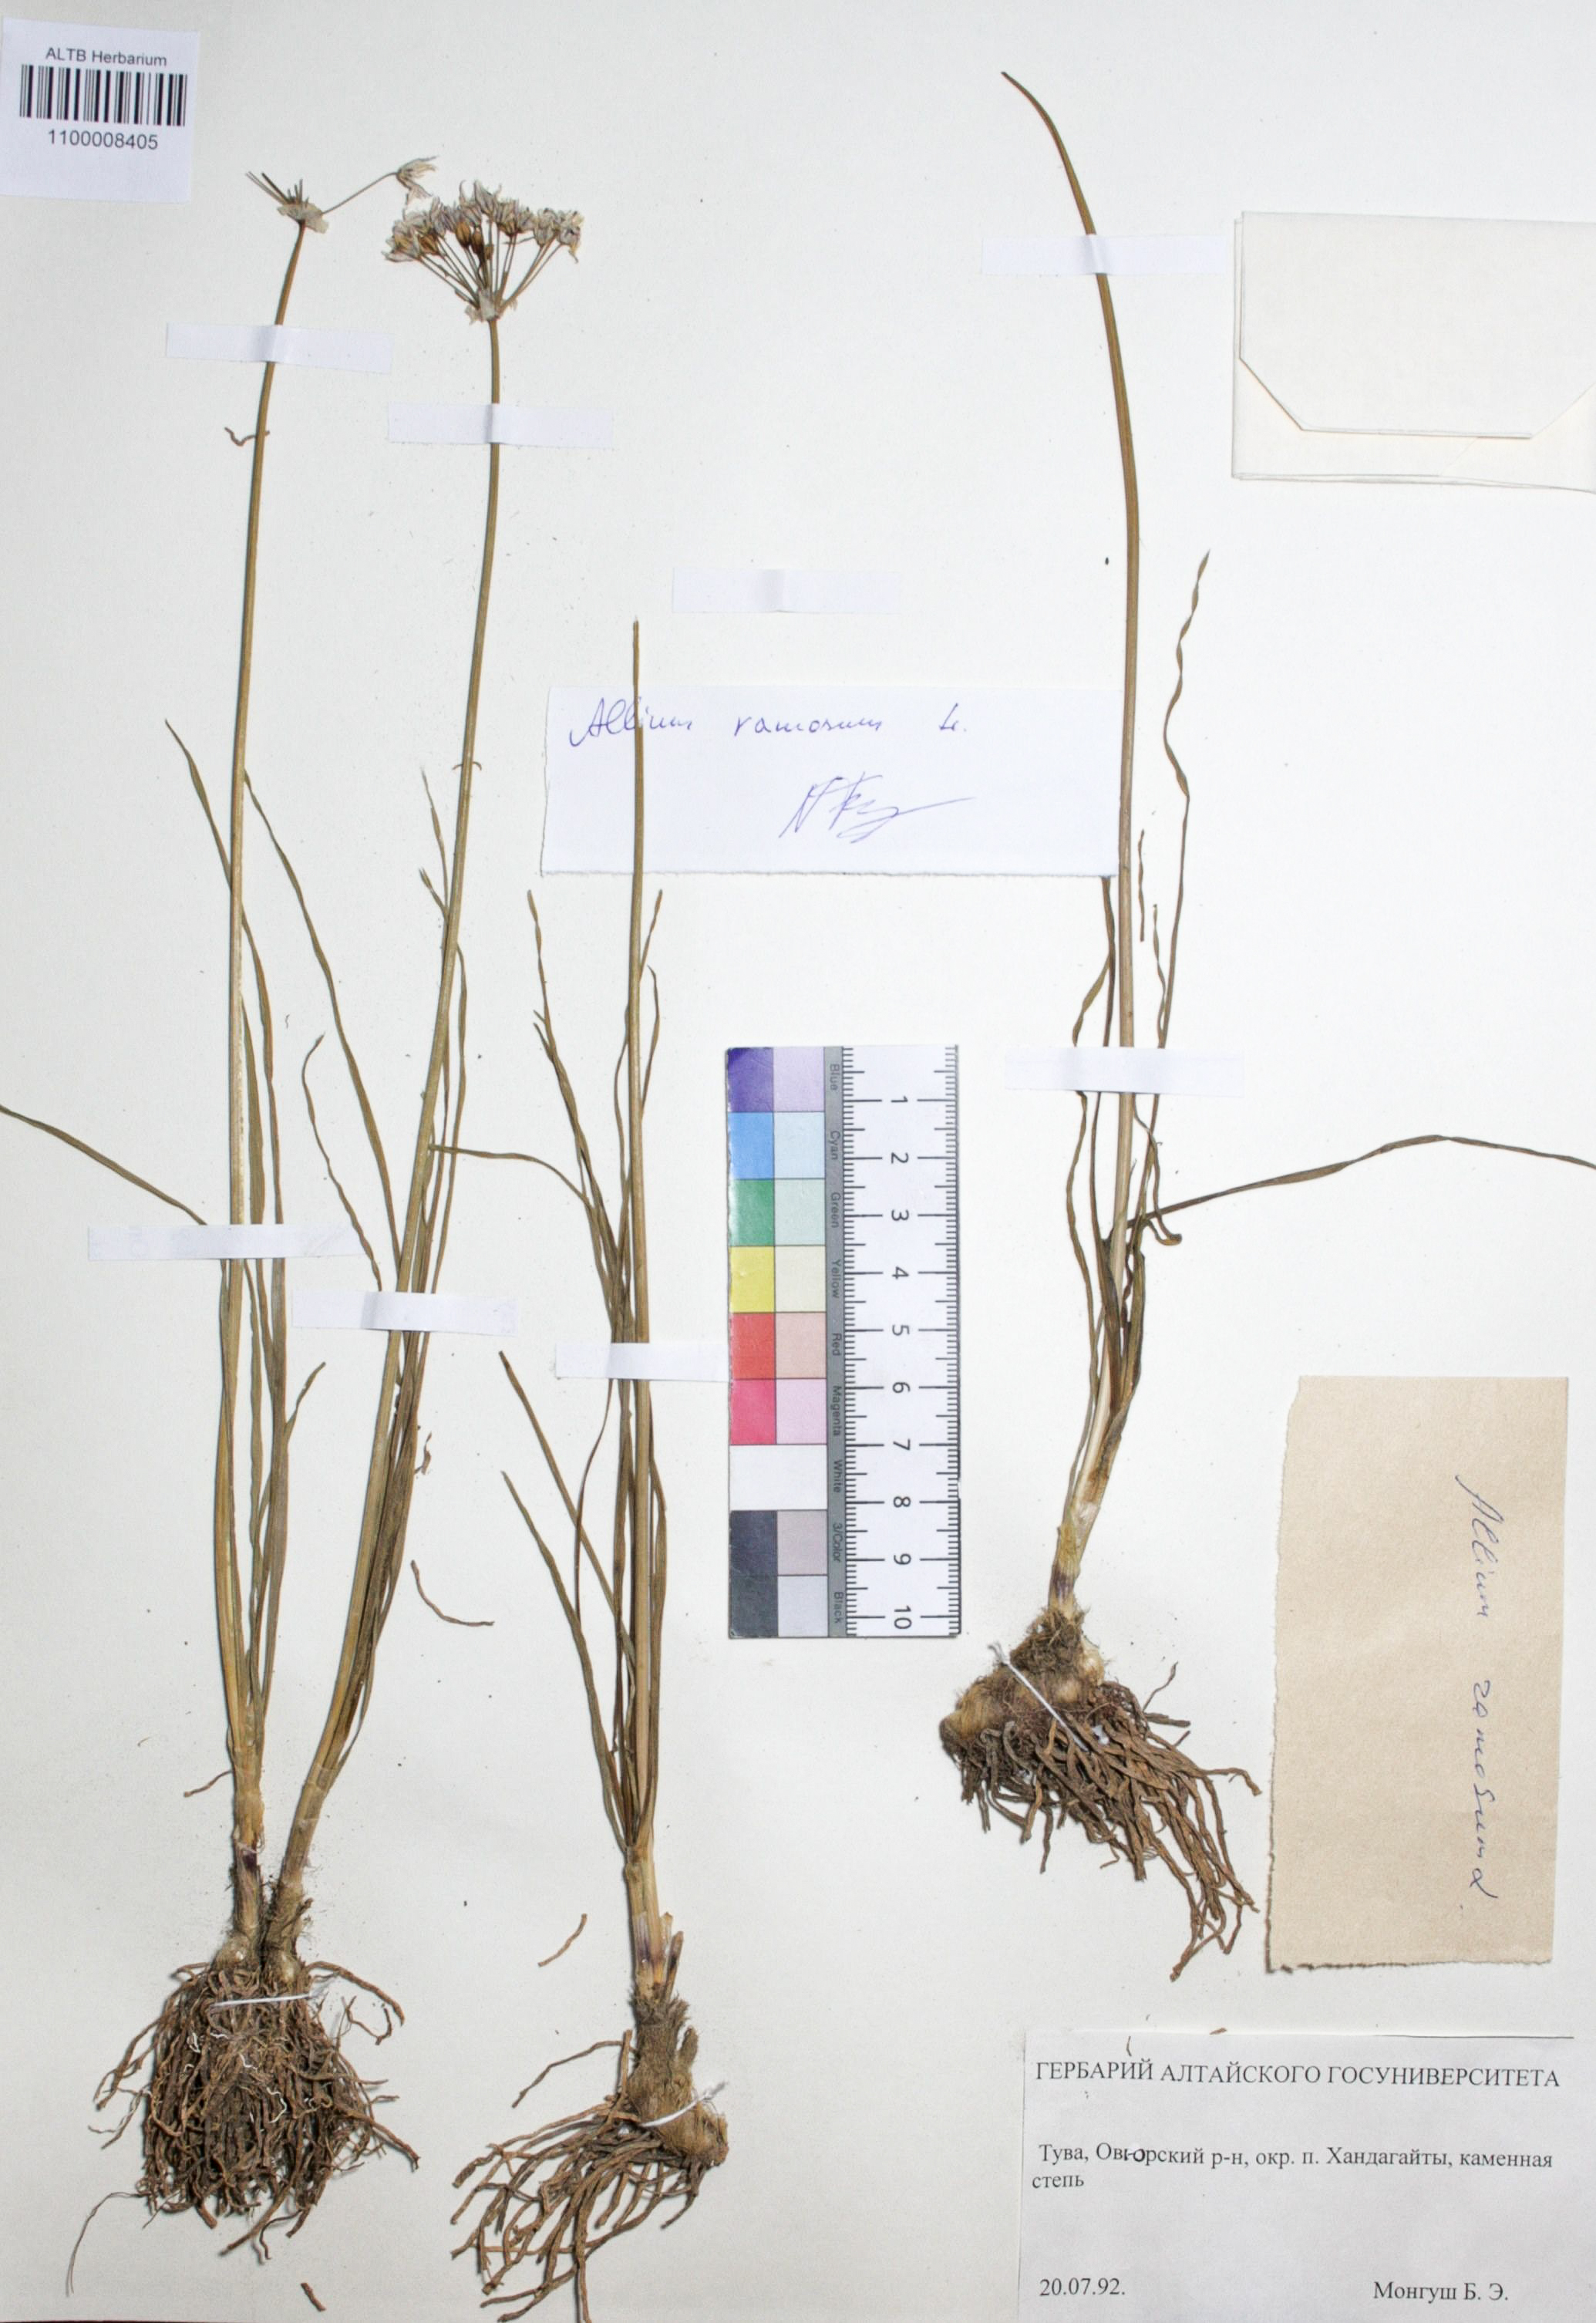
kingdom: Plantae
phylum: Tracheophyta
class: Liliopsida
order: Asparagales
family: Amaryllidaceae
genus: Allium
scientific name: Allium ramosum
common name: Fragrant garlic
